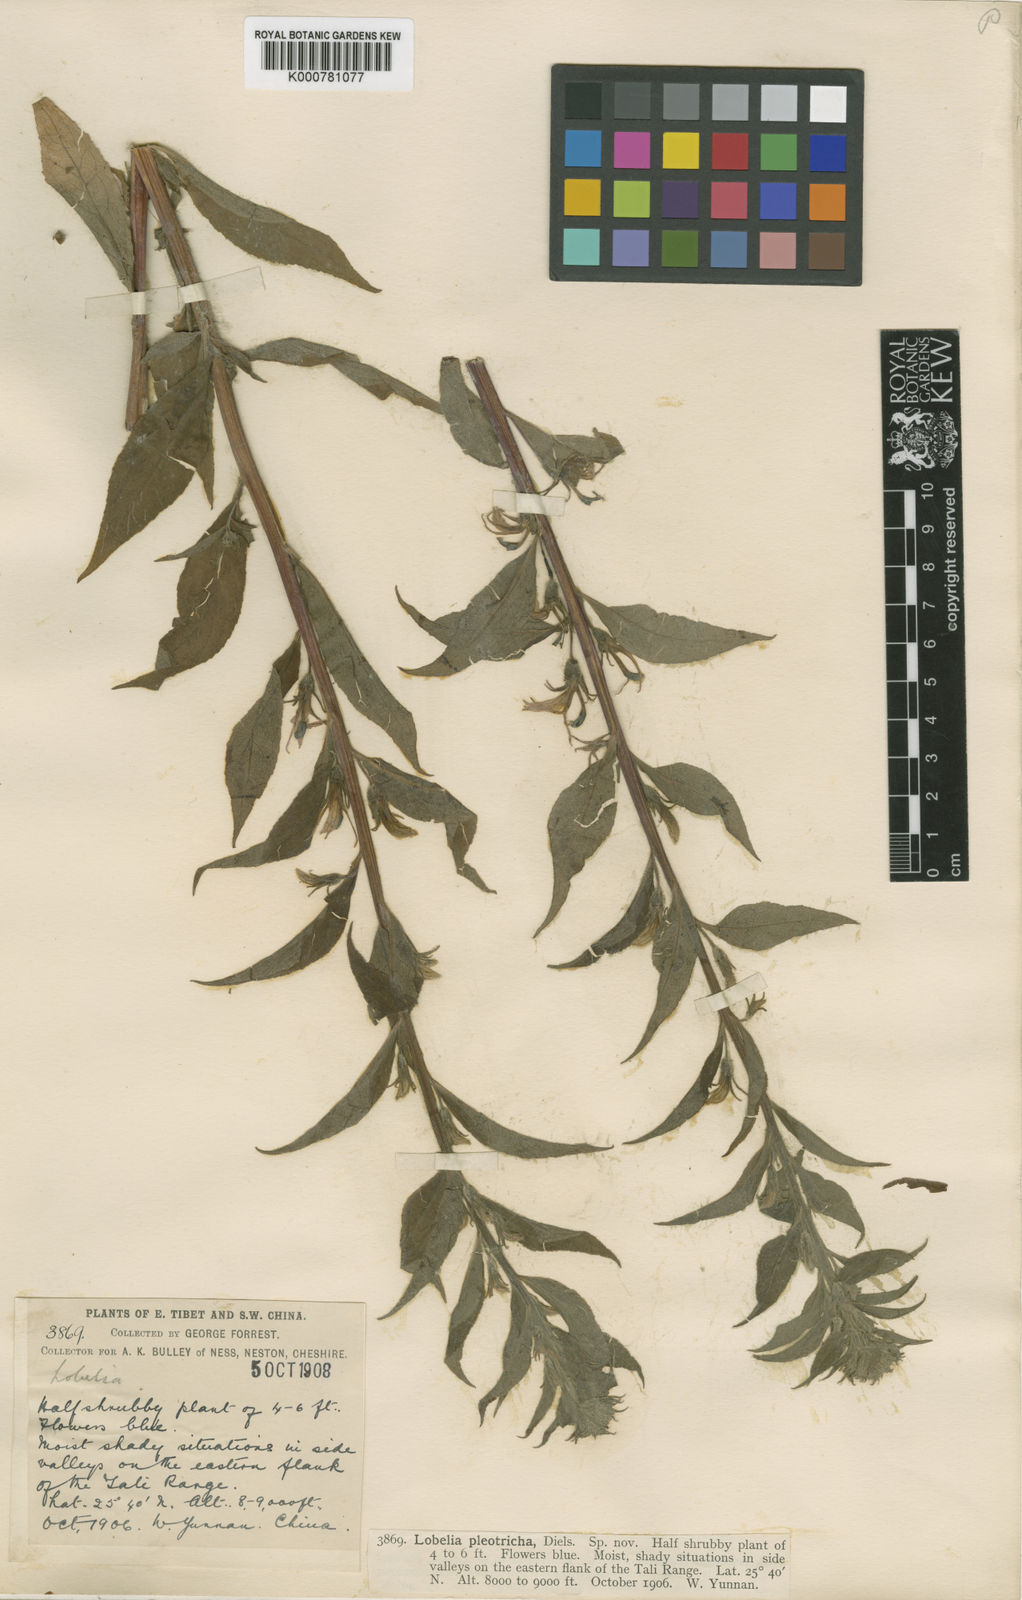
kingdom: Plantae
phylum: Tracheophyta
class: Magnoliopsida
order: Asterales
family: Campanulaceae
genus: Lobelia
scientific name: Lobelia davidii
